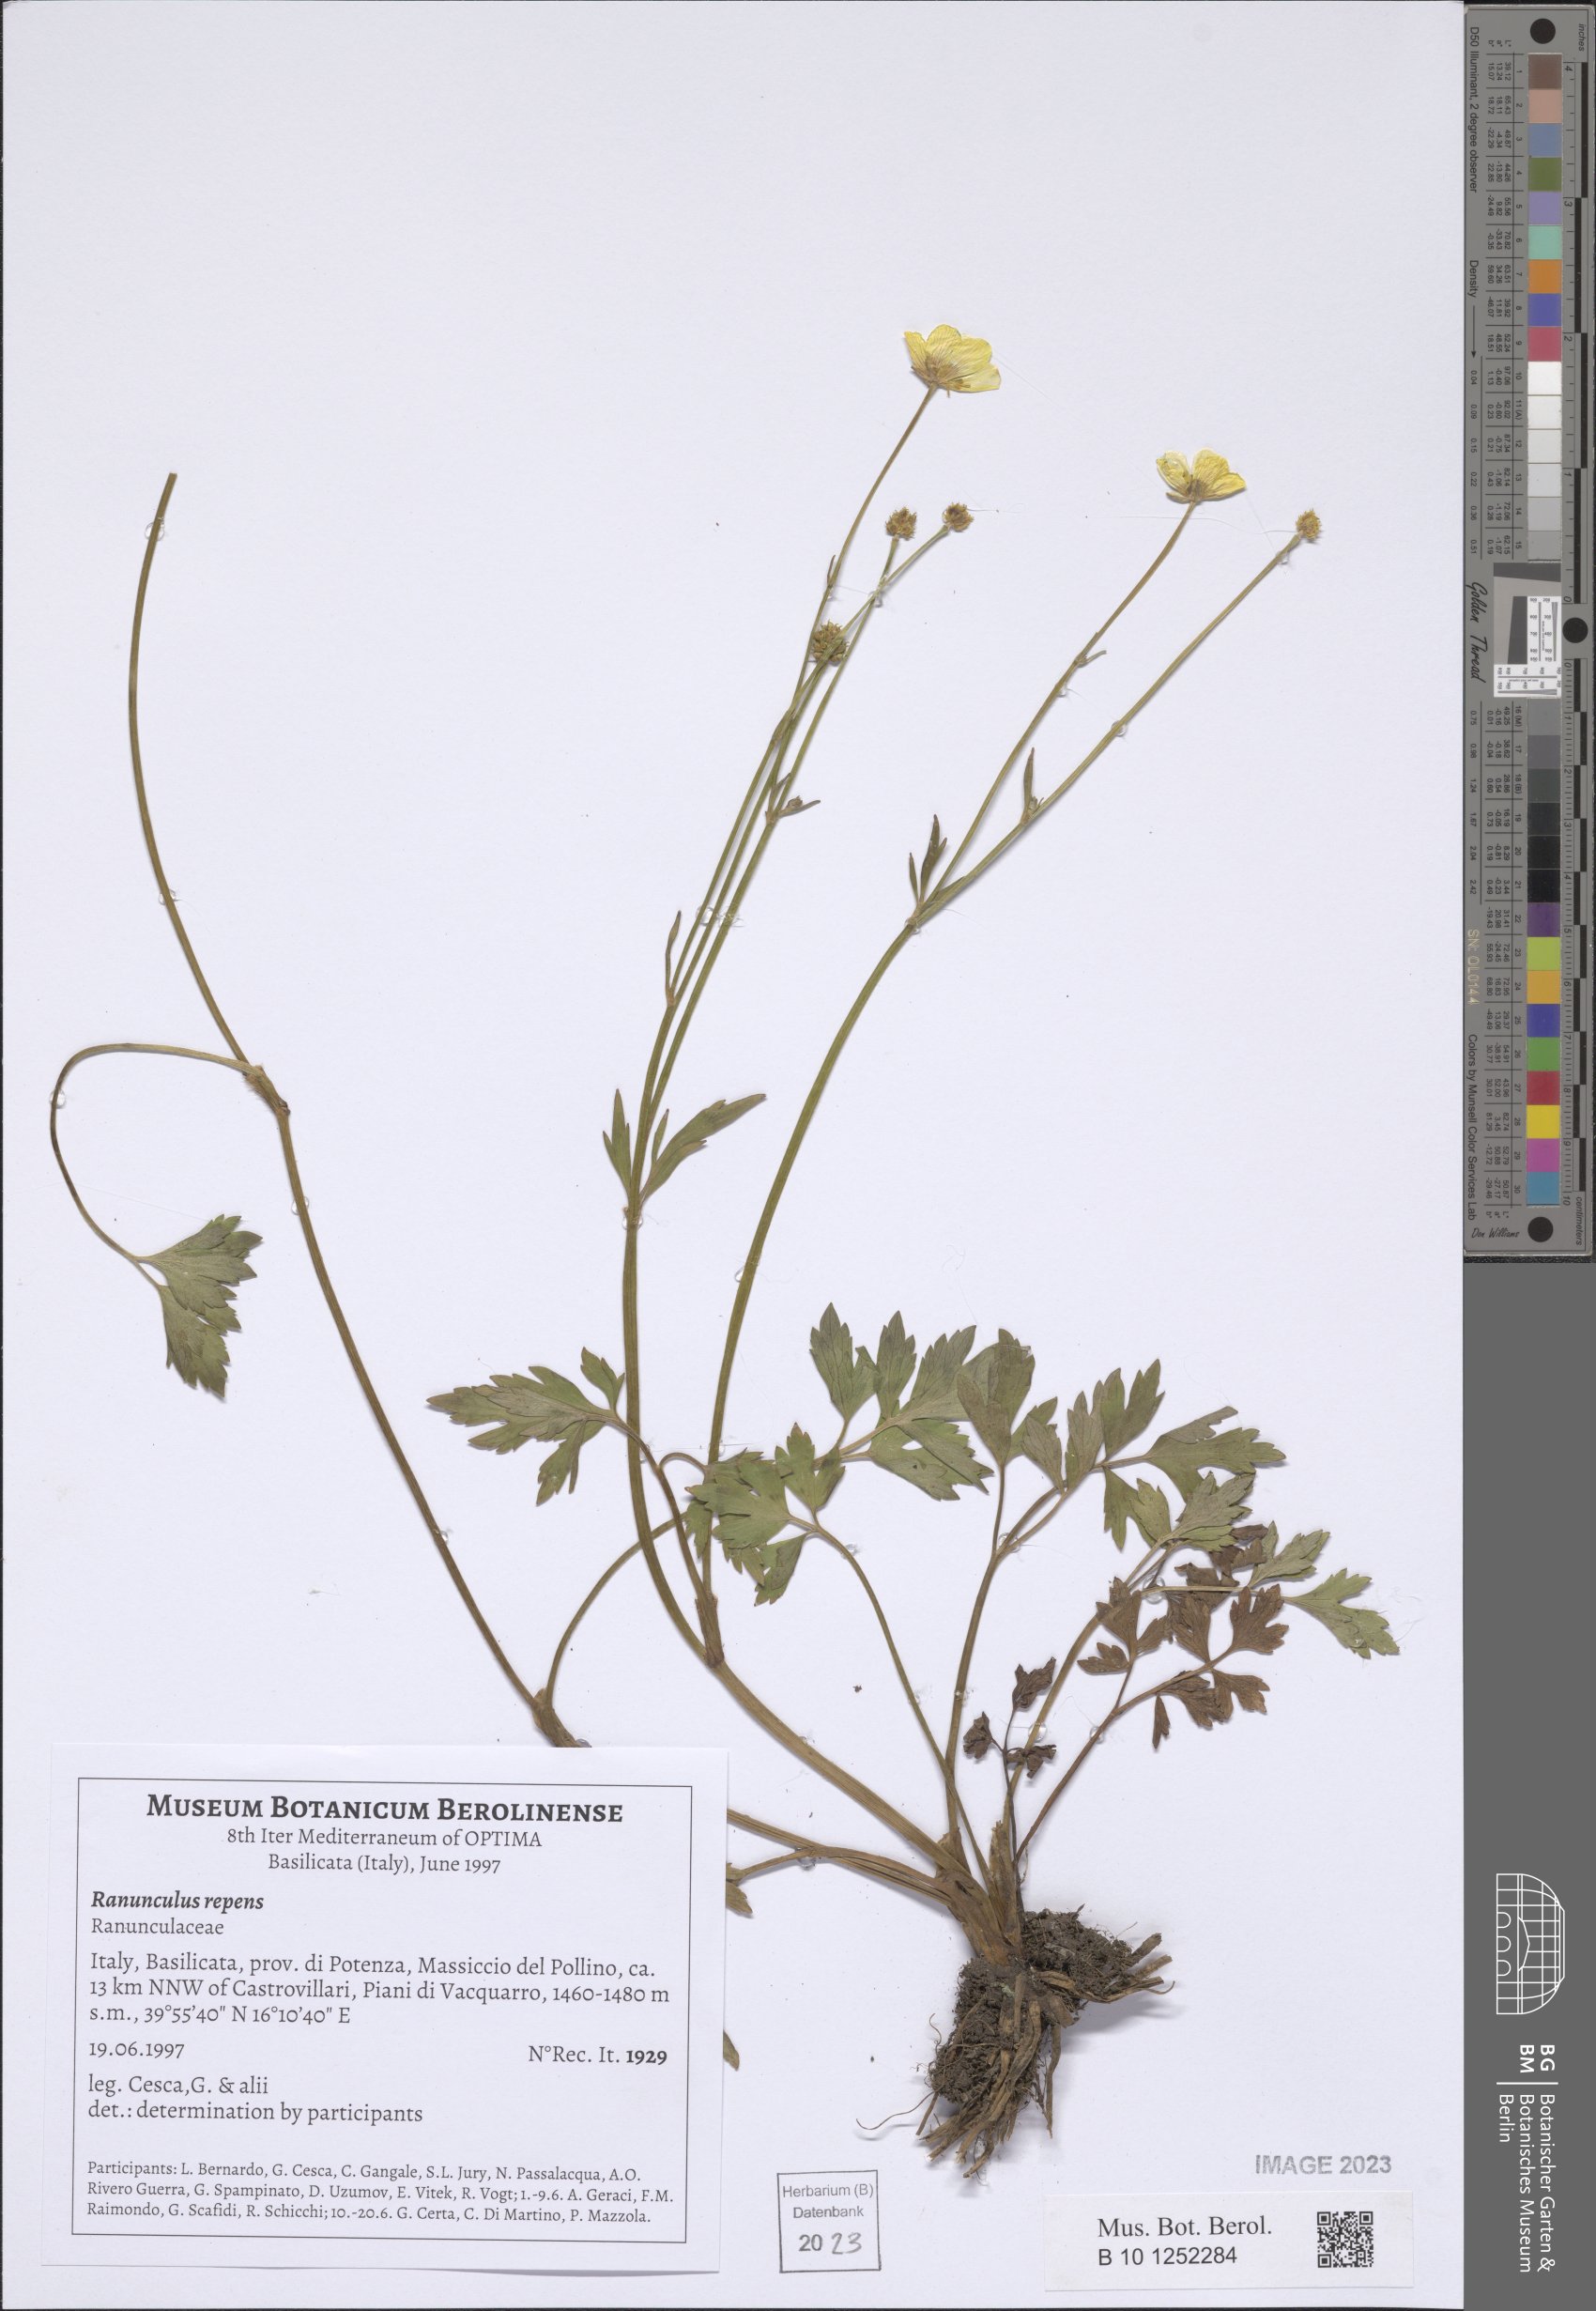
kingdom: Plantae
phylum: Tracheophyta
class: Magnoliopsida
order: Ranunculales
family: Ranunculaceae
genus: Ranunculus
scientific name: Ranunculus repens
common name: Creeping buttercup
